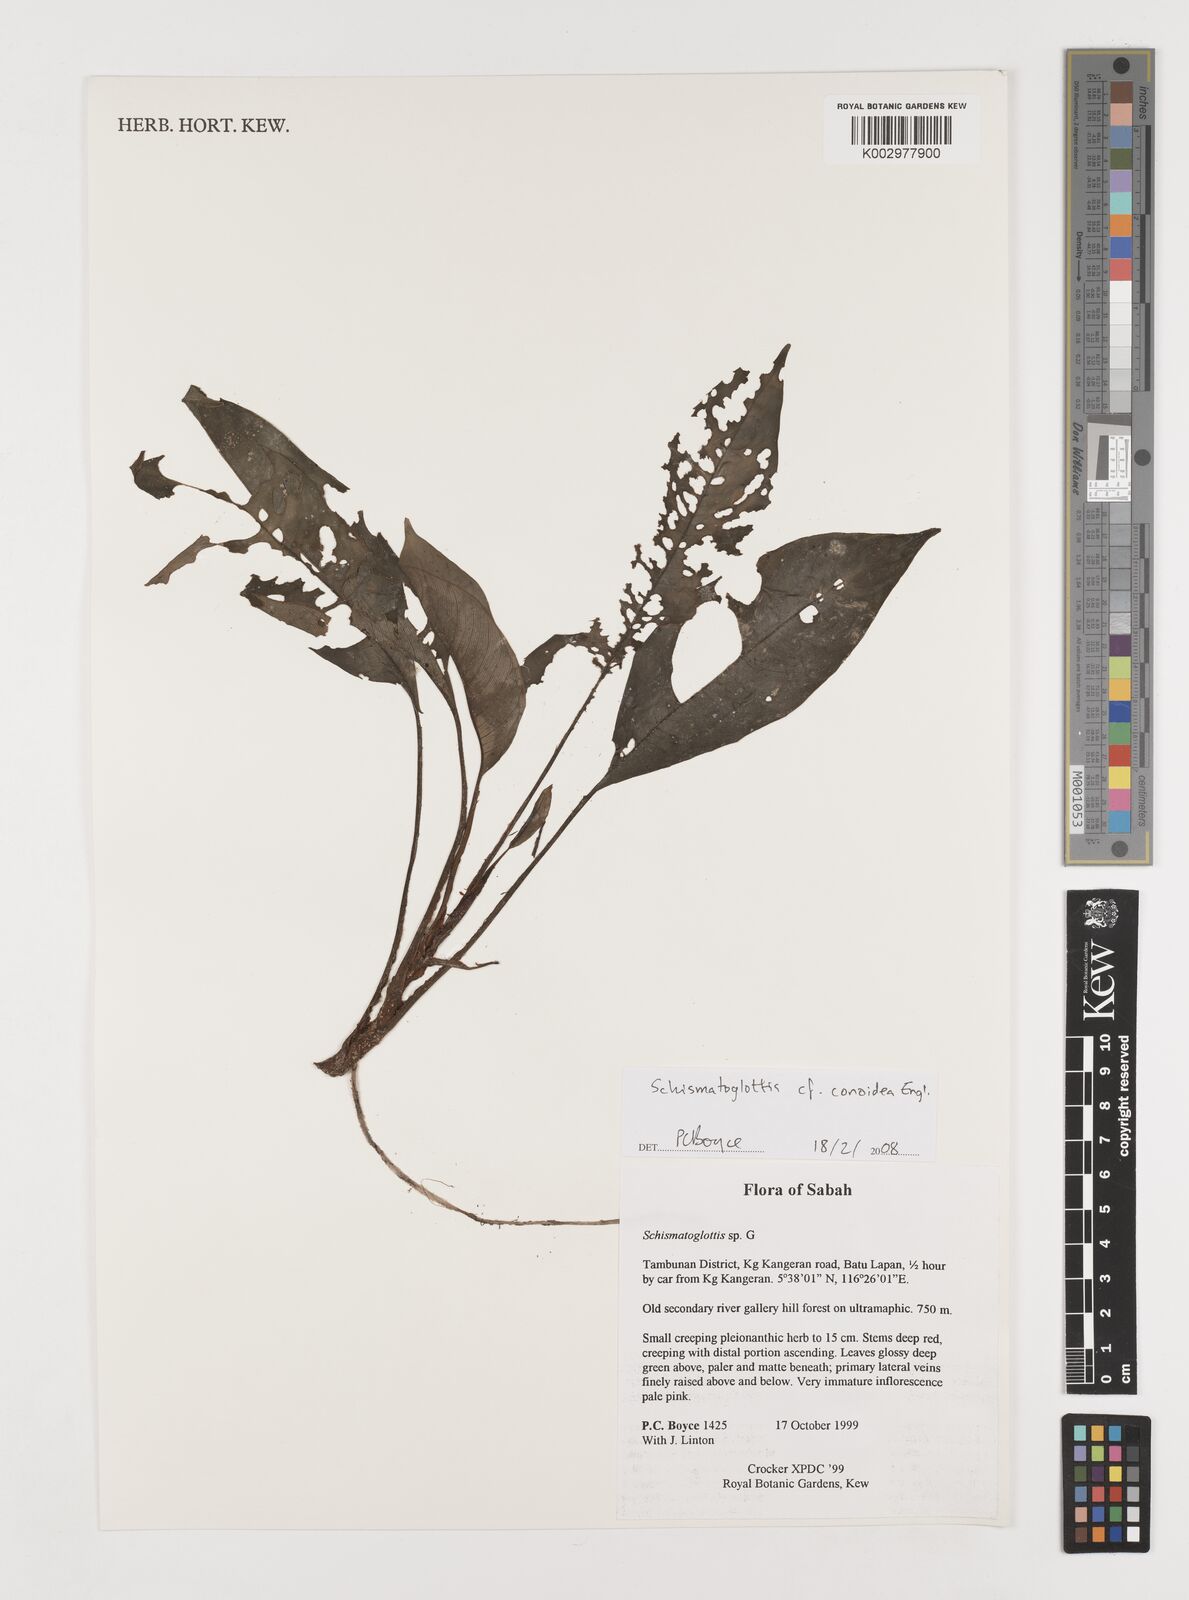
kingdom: Plantae
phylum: Tracheophyta
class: Liliopsida
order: Alismatales
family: Araceae
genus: Schismatoglottis
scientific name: Schismatoglottis conoidea
